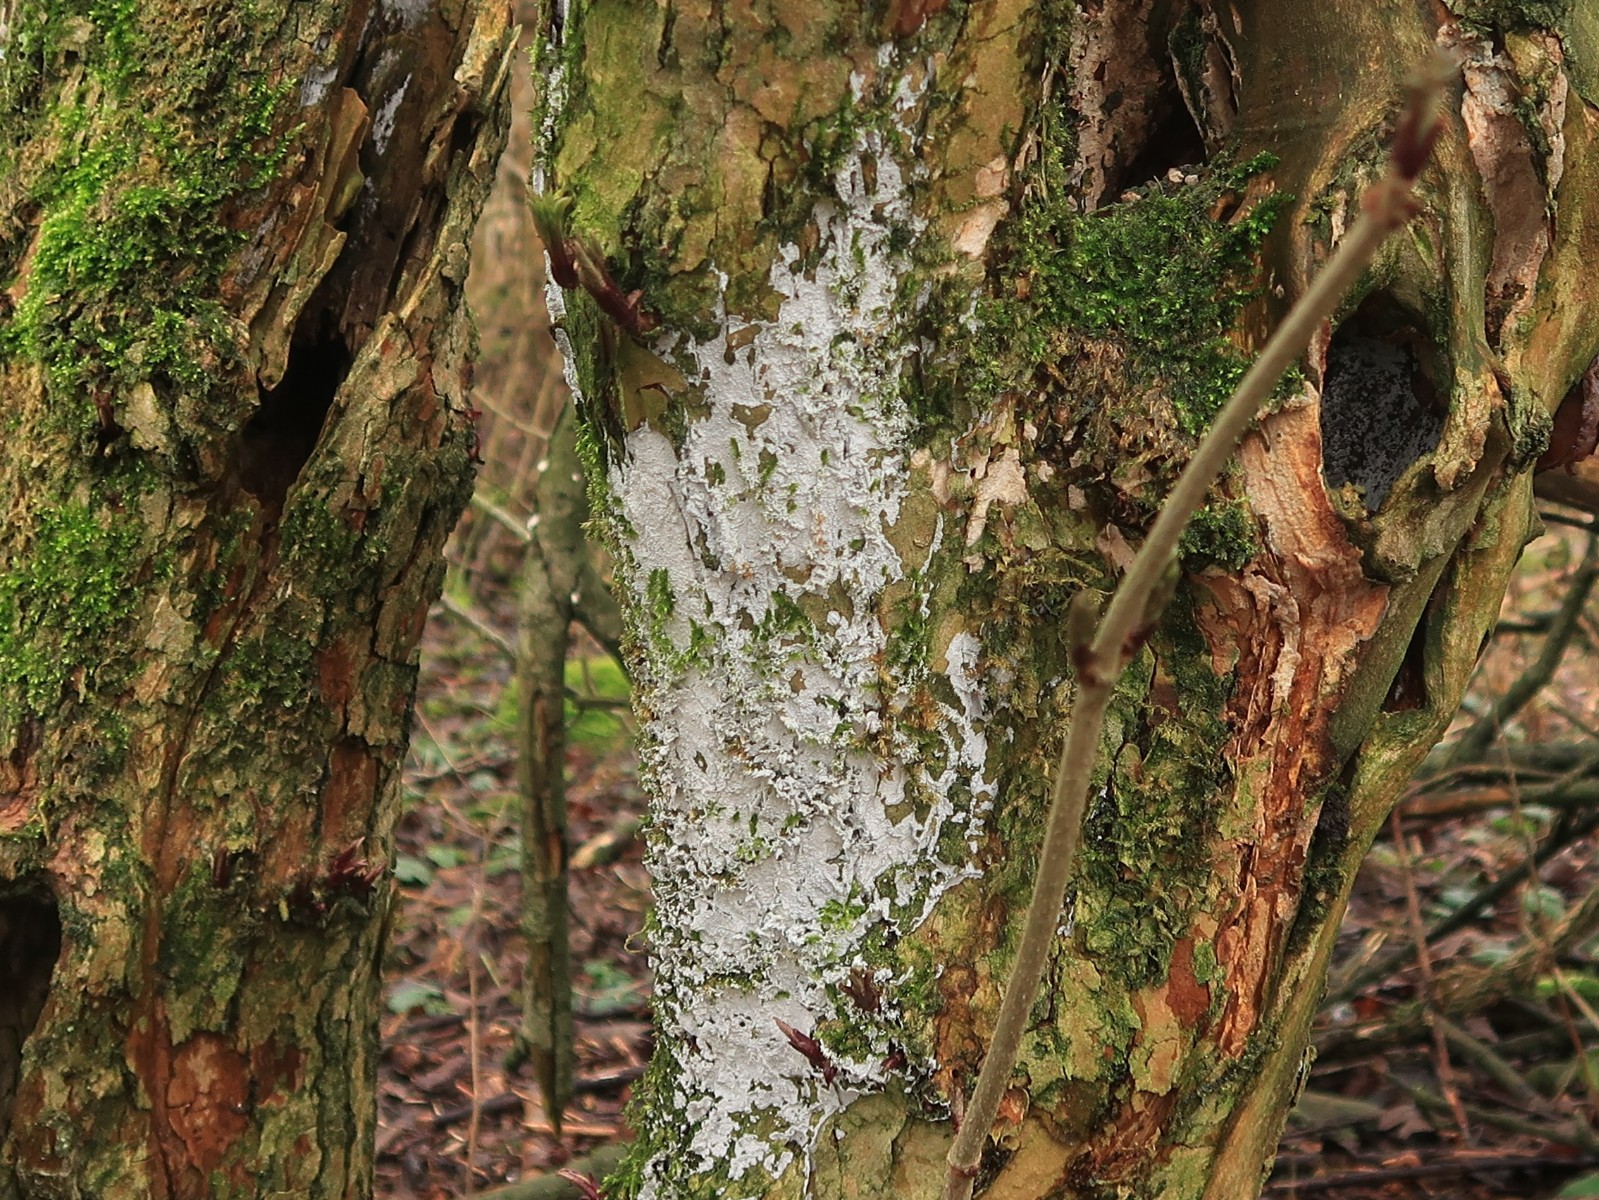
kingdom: Fungi
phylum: Basidiomycota
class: Agaricomycetes
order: Corticiales
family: Corticiaceae
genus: Lyomyces
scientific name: Lyomyces sambuci
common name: almindelig hyldehinde
